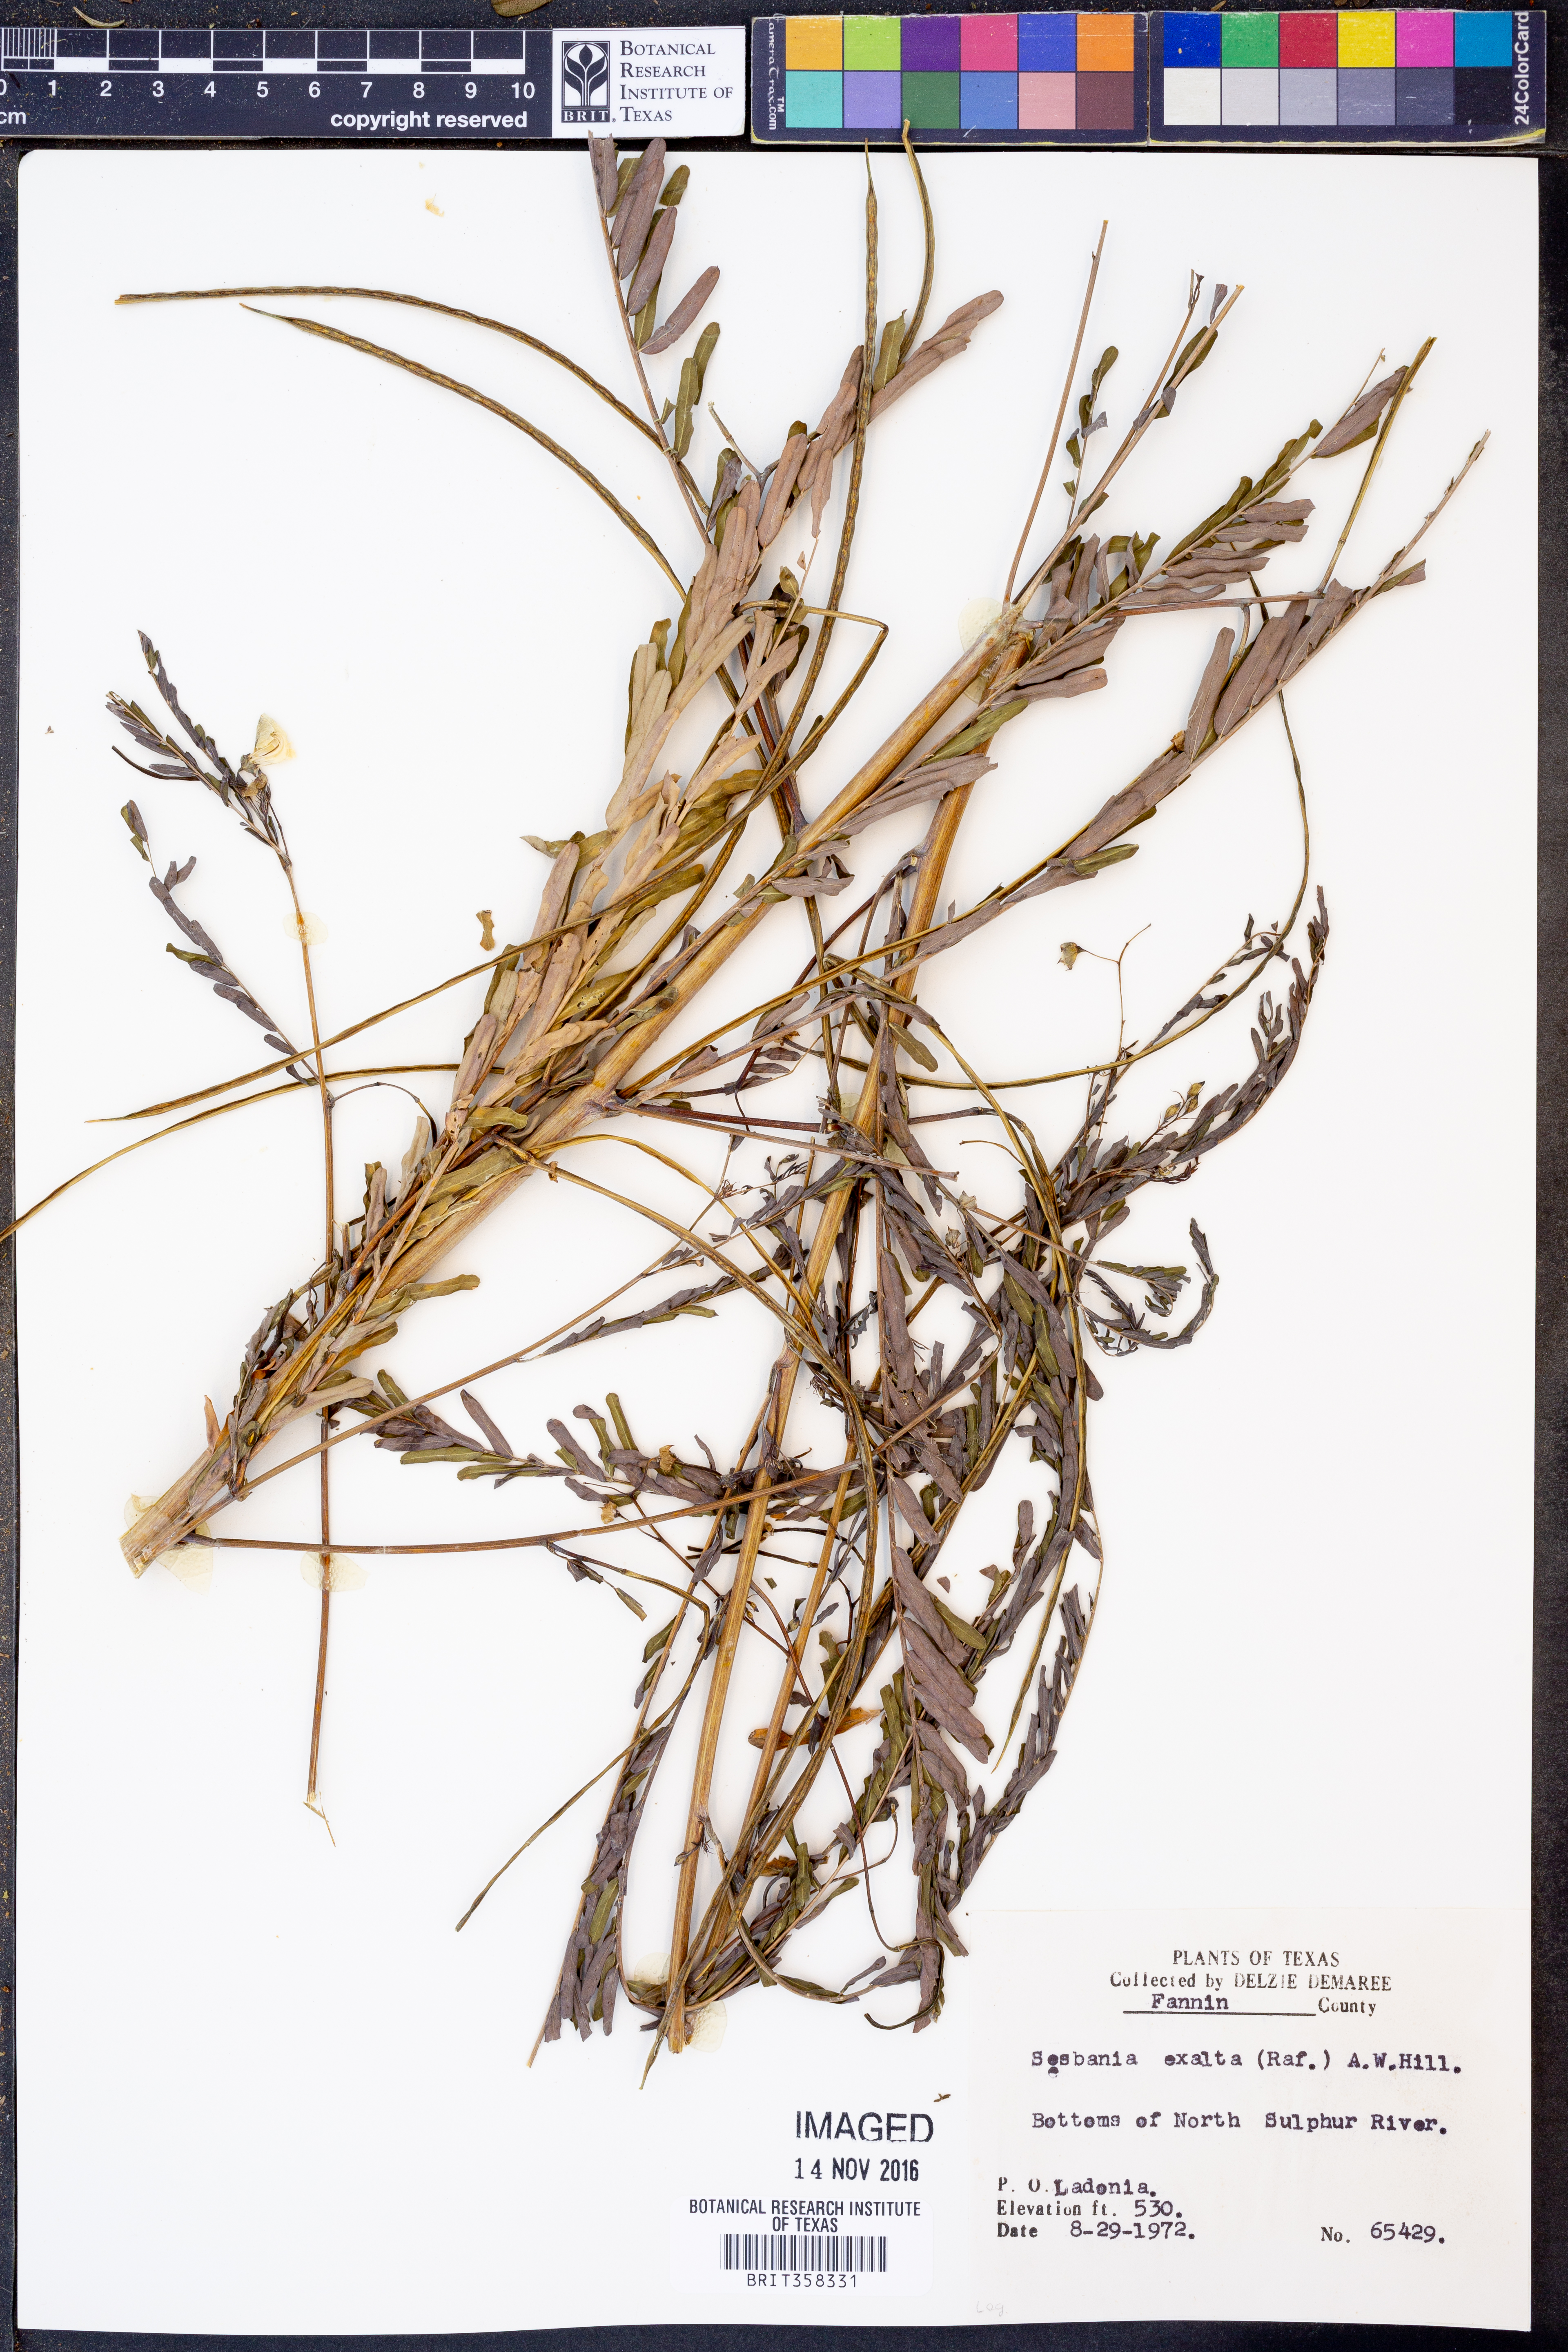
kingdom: Plantae
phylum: Tracheophyta
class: Magnoliopsida
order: Fabales
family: Fabaceae
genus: Sesbania
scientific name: Sesbania herbacea
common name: Bigpod sesbania
